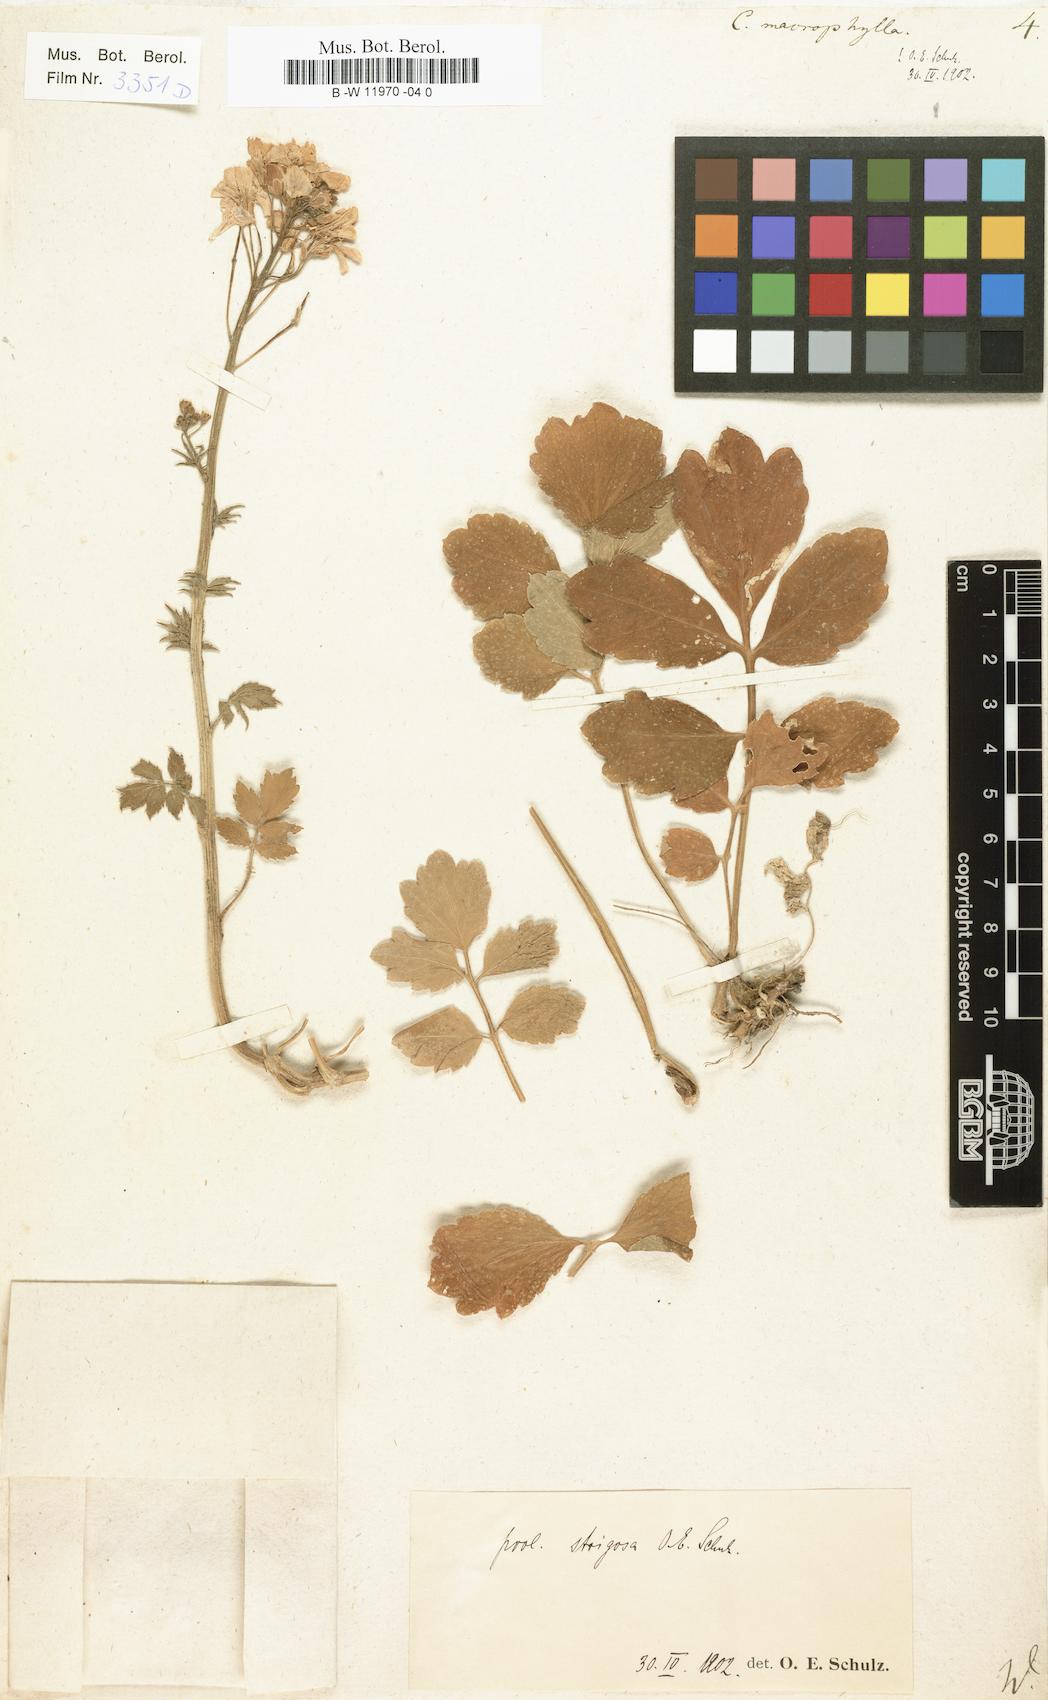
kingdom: Plantae
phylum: Tracheophyta
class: Magnoliopsida
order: Brassicales
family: Brassicaceae
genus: Cardamine
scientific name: Cardamine amara
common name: Large bitter-cress
